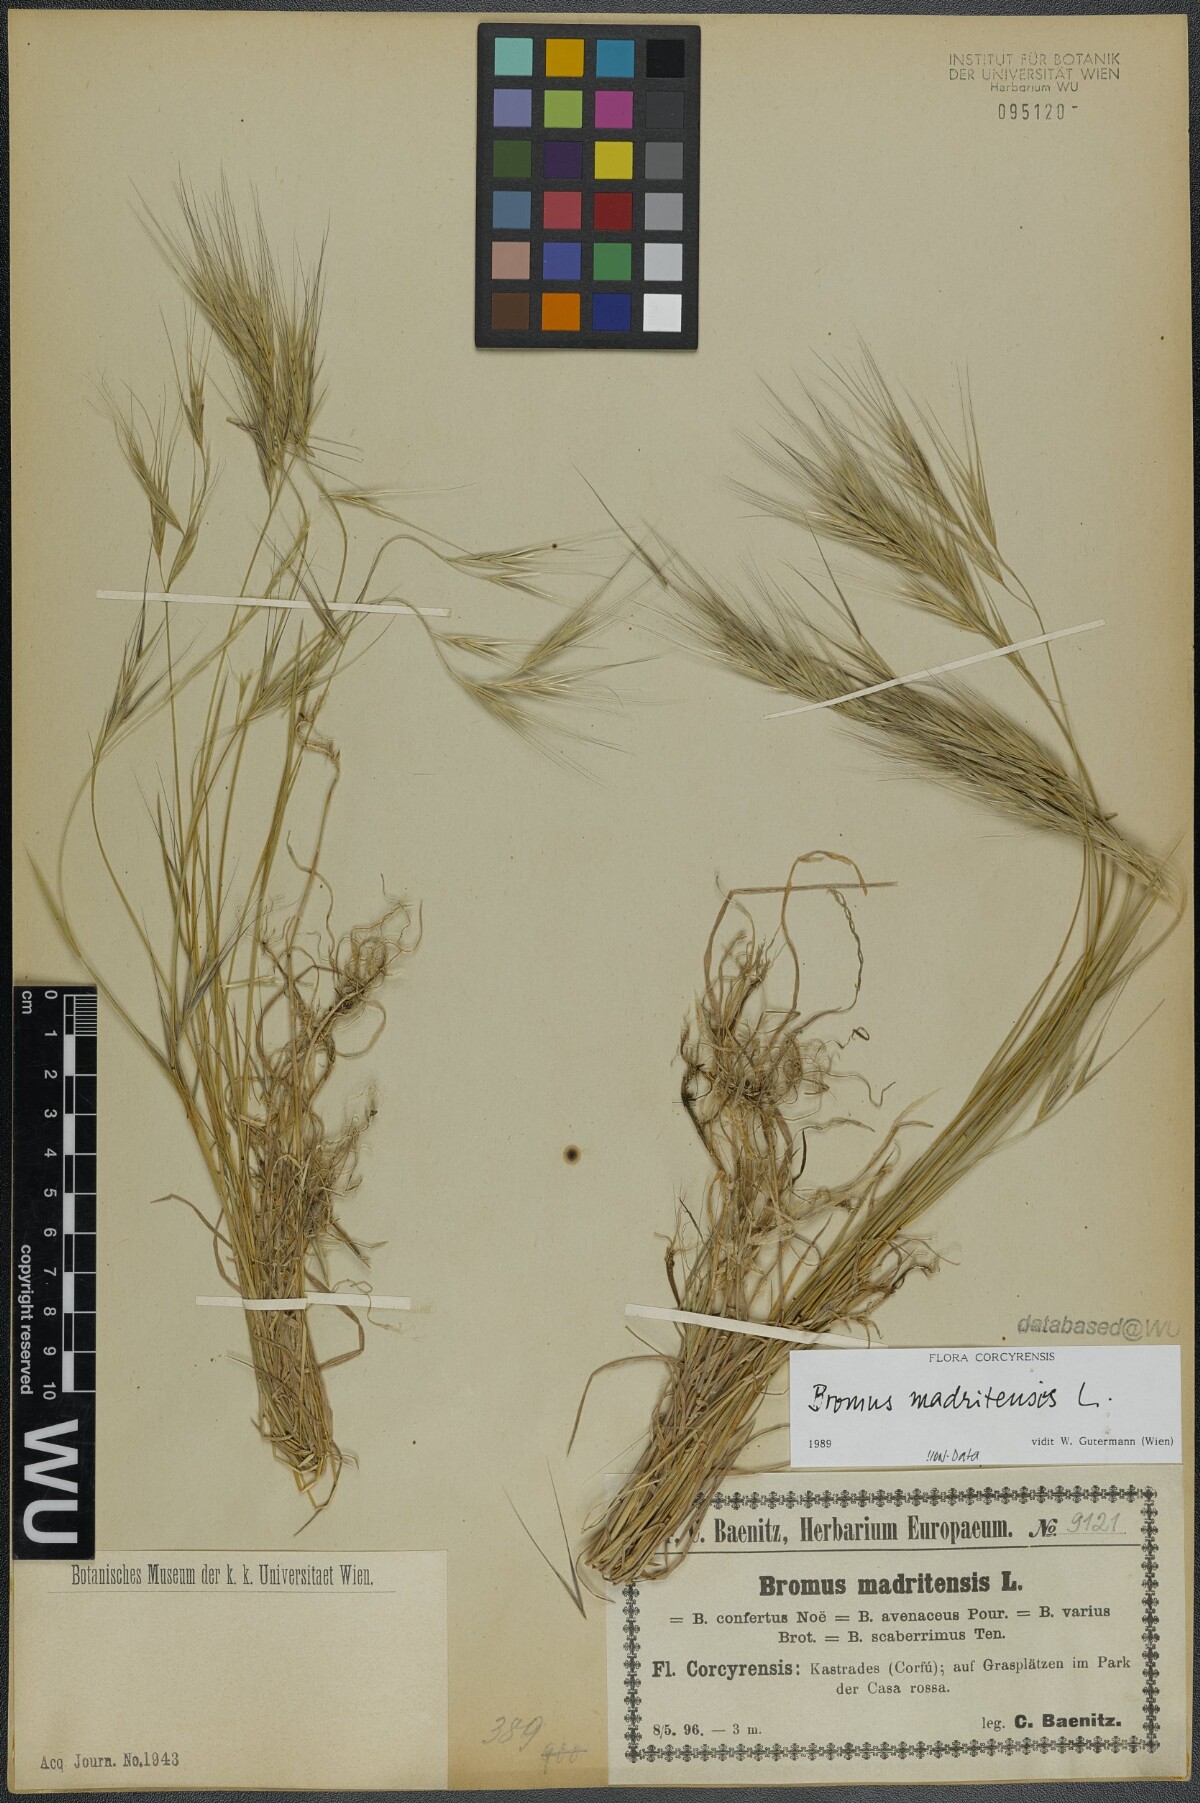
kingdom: Plantae
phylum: Tracheophyta
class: Liliopsida
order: Poales
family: Poaceae
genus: Bromus
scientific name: Bromus madritensis
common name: Compact brome
